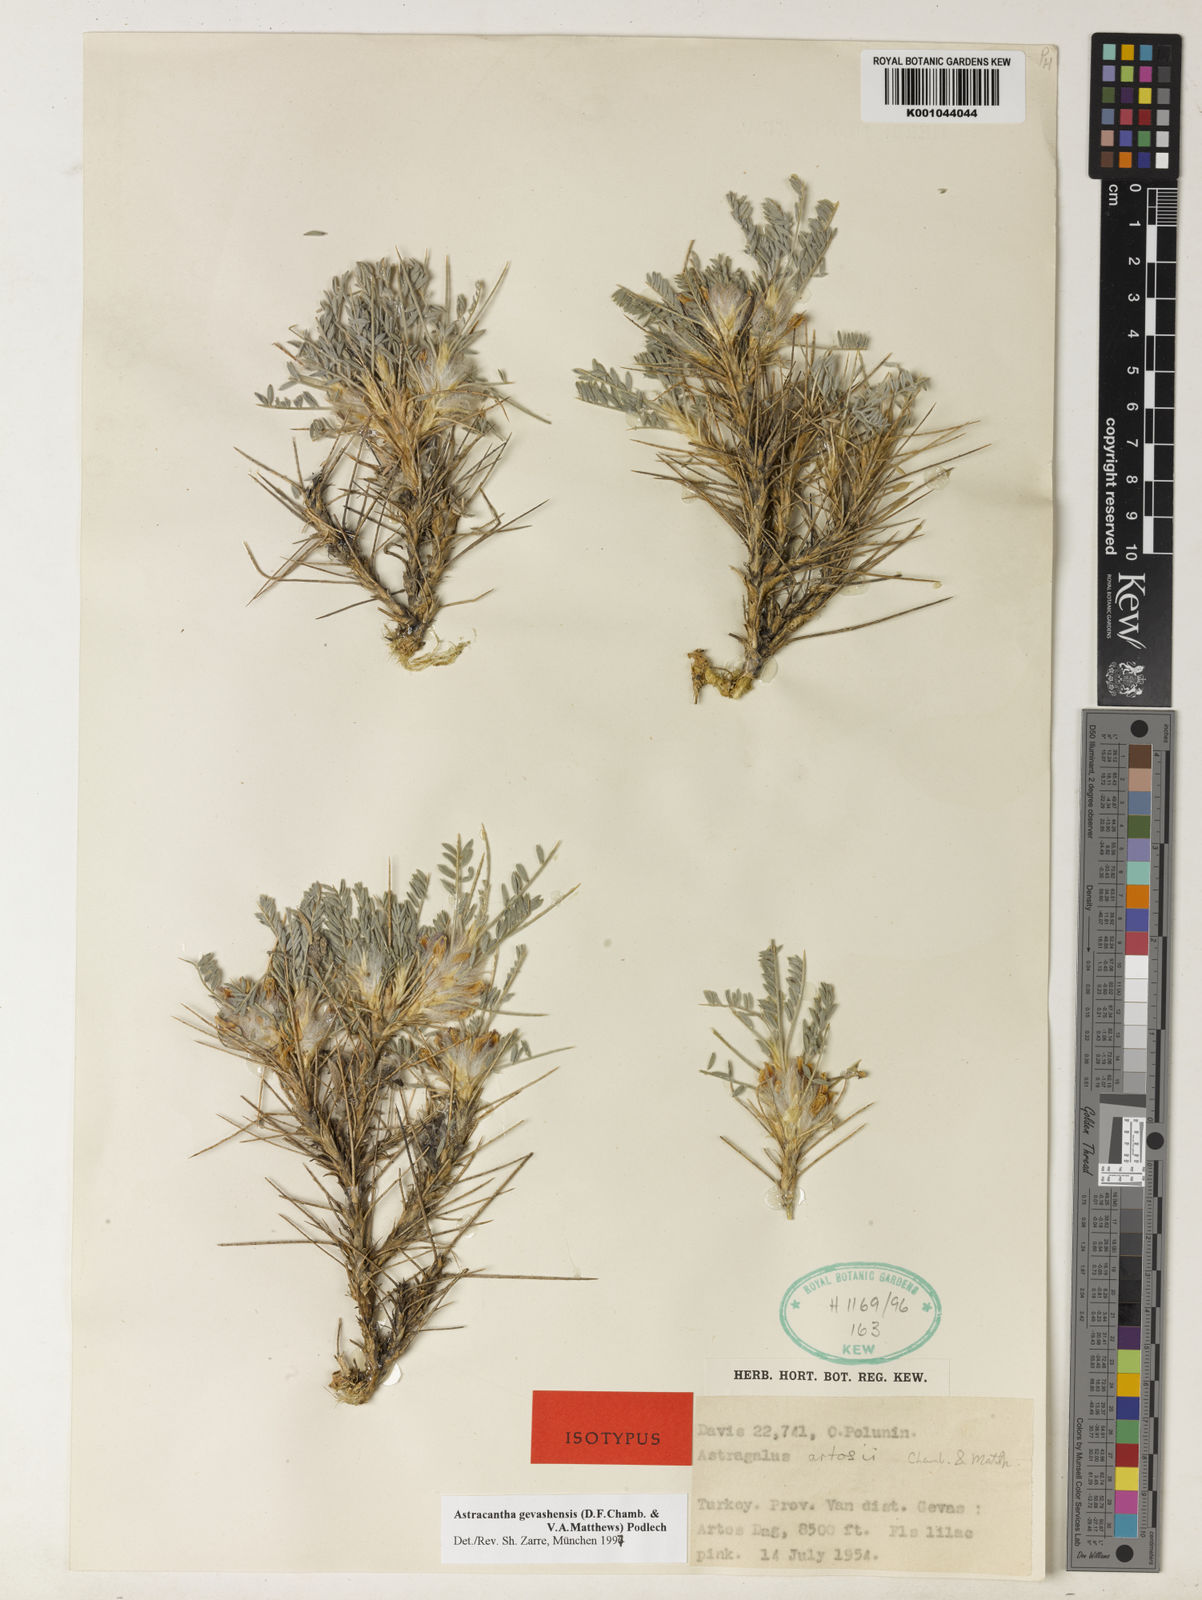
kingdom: Plantae
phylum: Tracheophyta
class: Magnoliopsida
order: Fabales
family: Fabaceae
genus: Astragalus
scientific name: Astragalus gevashensis
